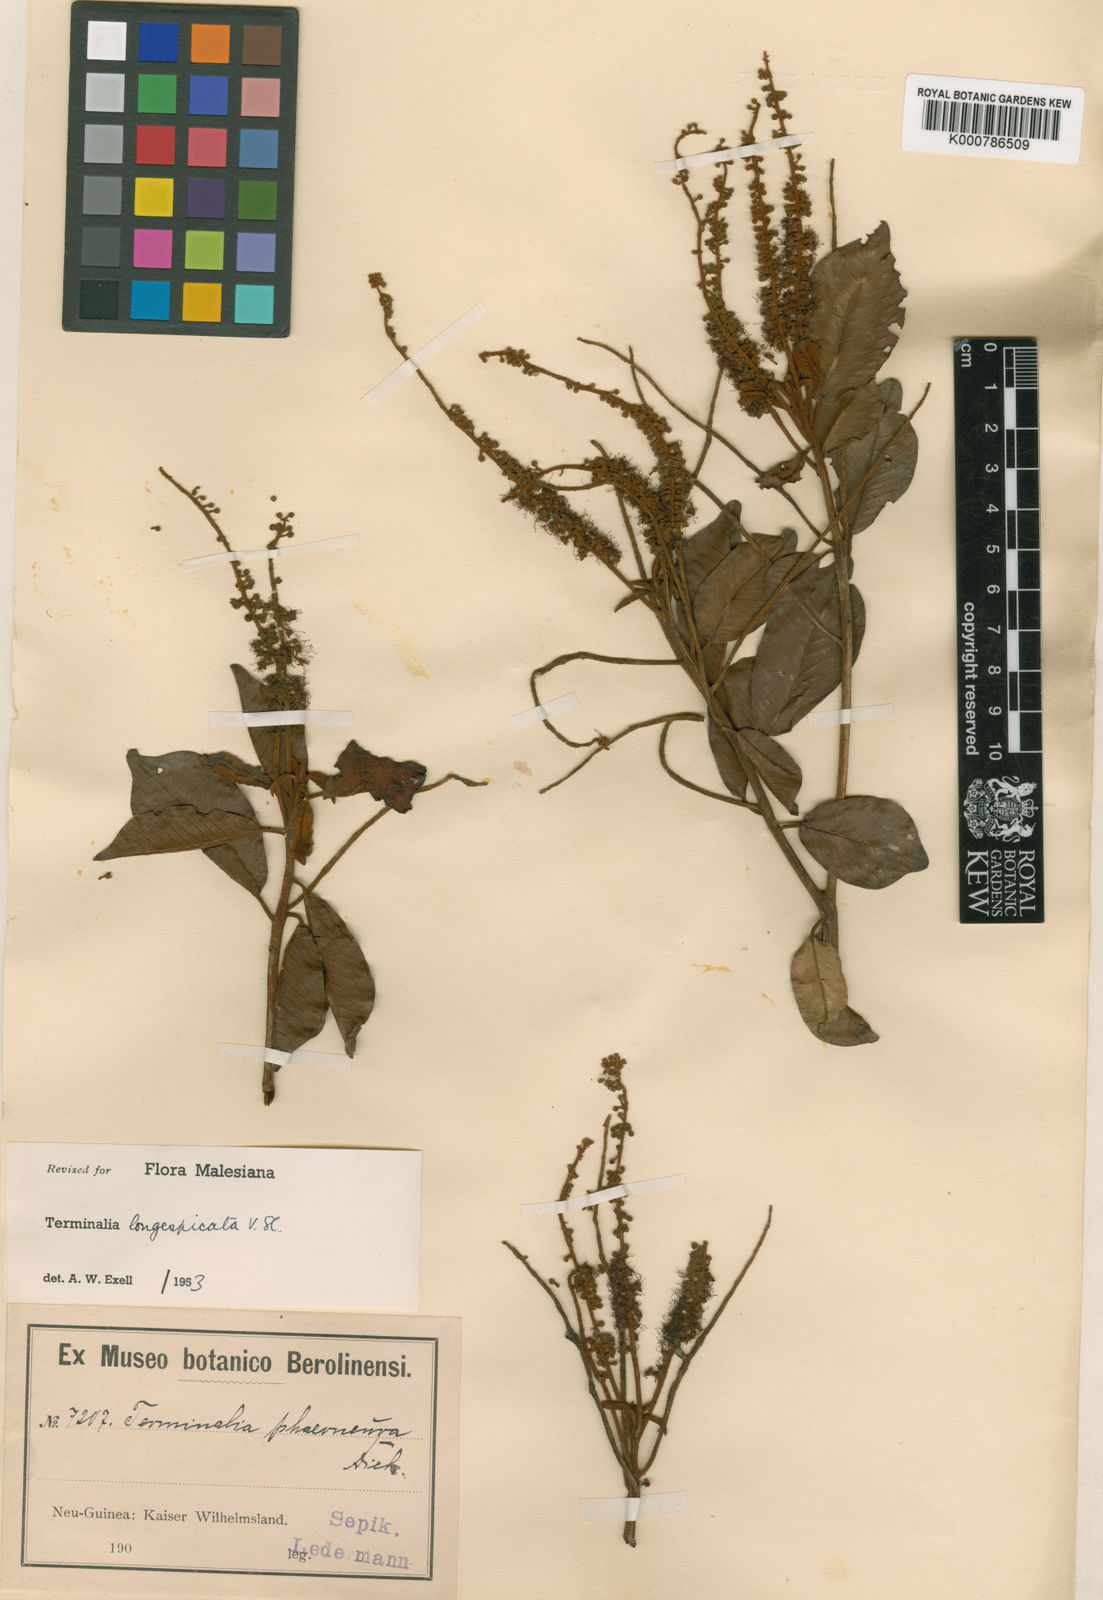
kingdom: Plantae
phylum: Tracheophyta
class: Magnoliopsida
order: Myrtales
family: Combretaceae
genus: Terminalia
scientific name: Terminalia longespicata
